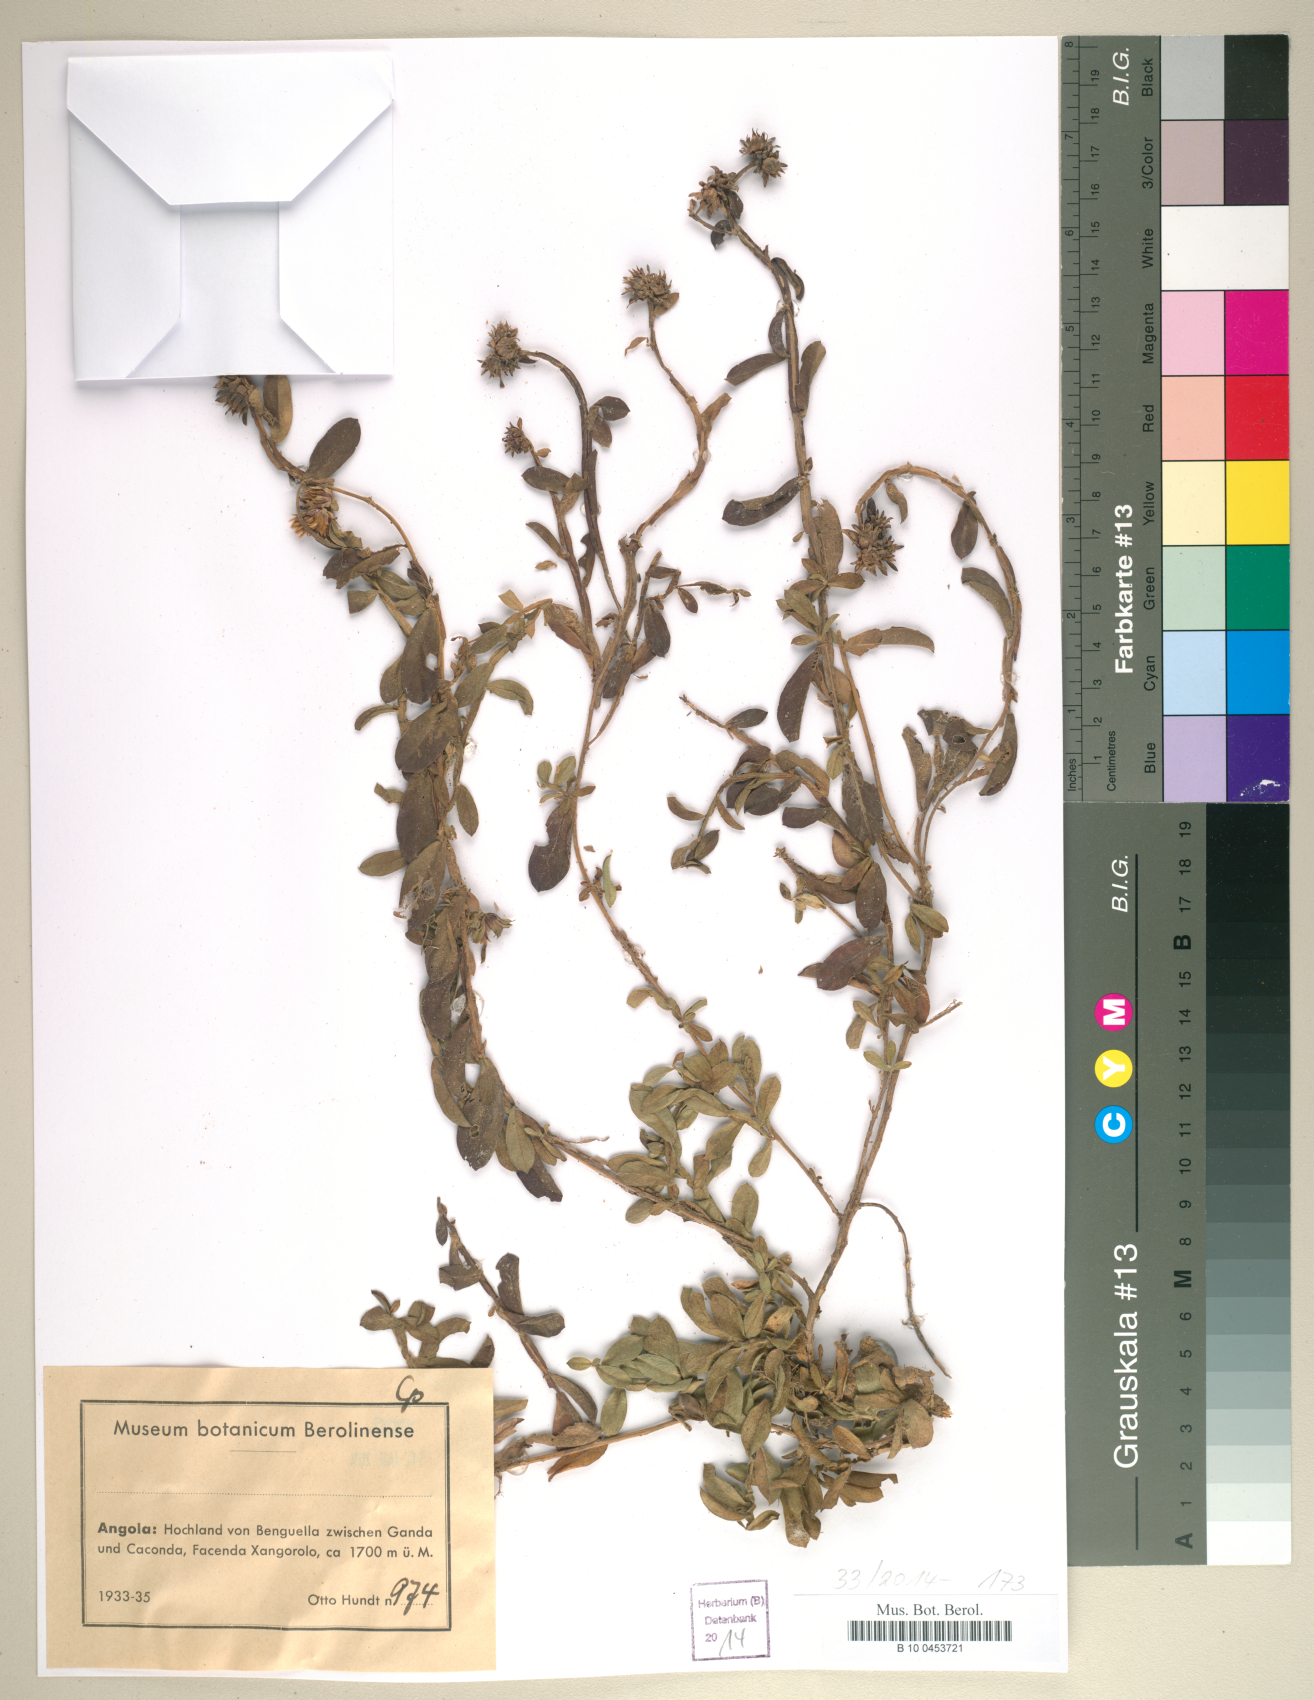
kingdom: Plantae
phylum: Tracheophyta
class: Magnoliopsida
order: Asterales
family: Asteraceae
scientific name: Asteraceae
